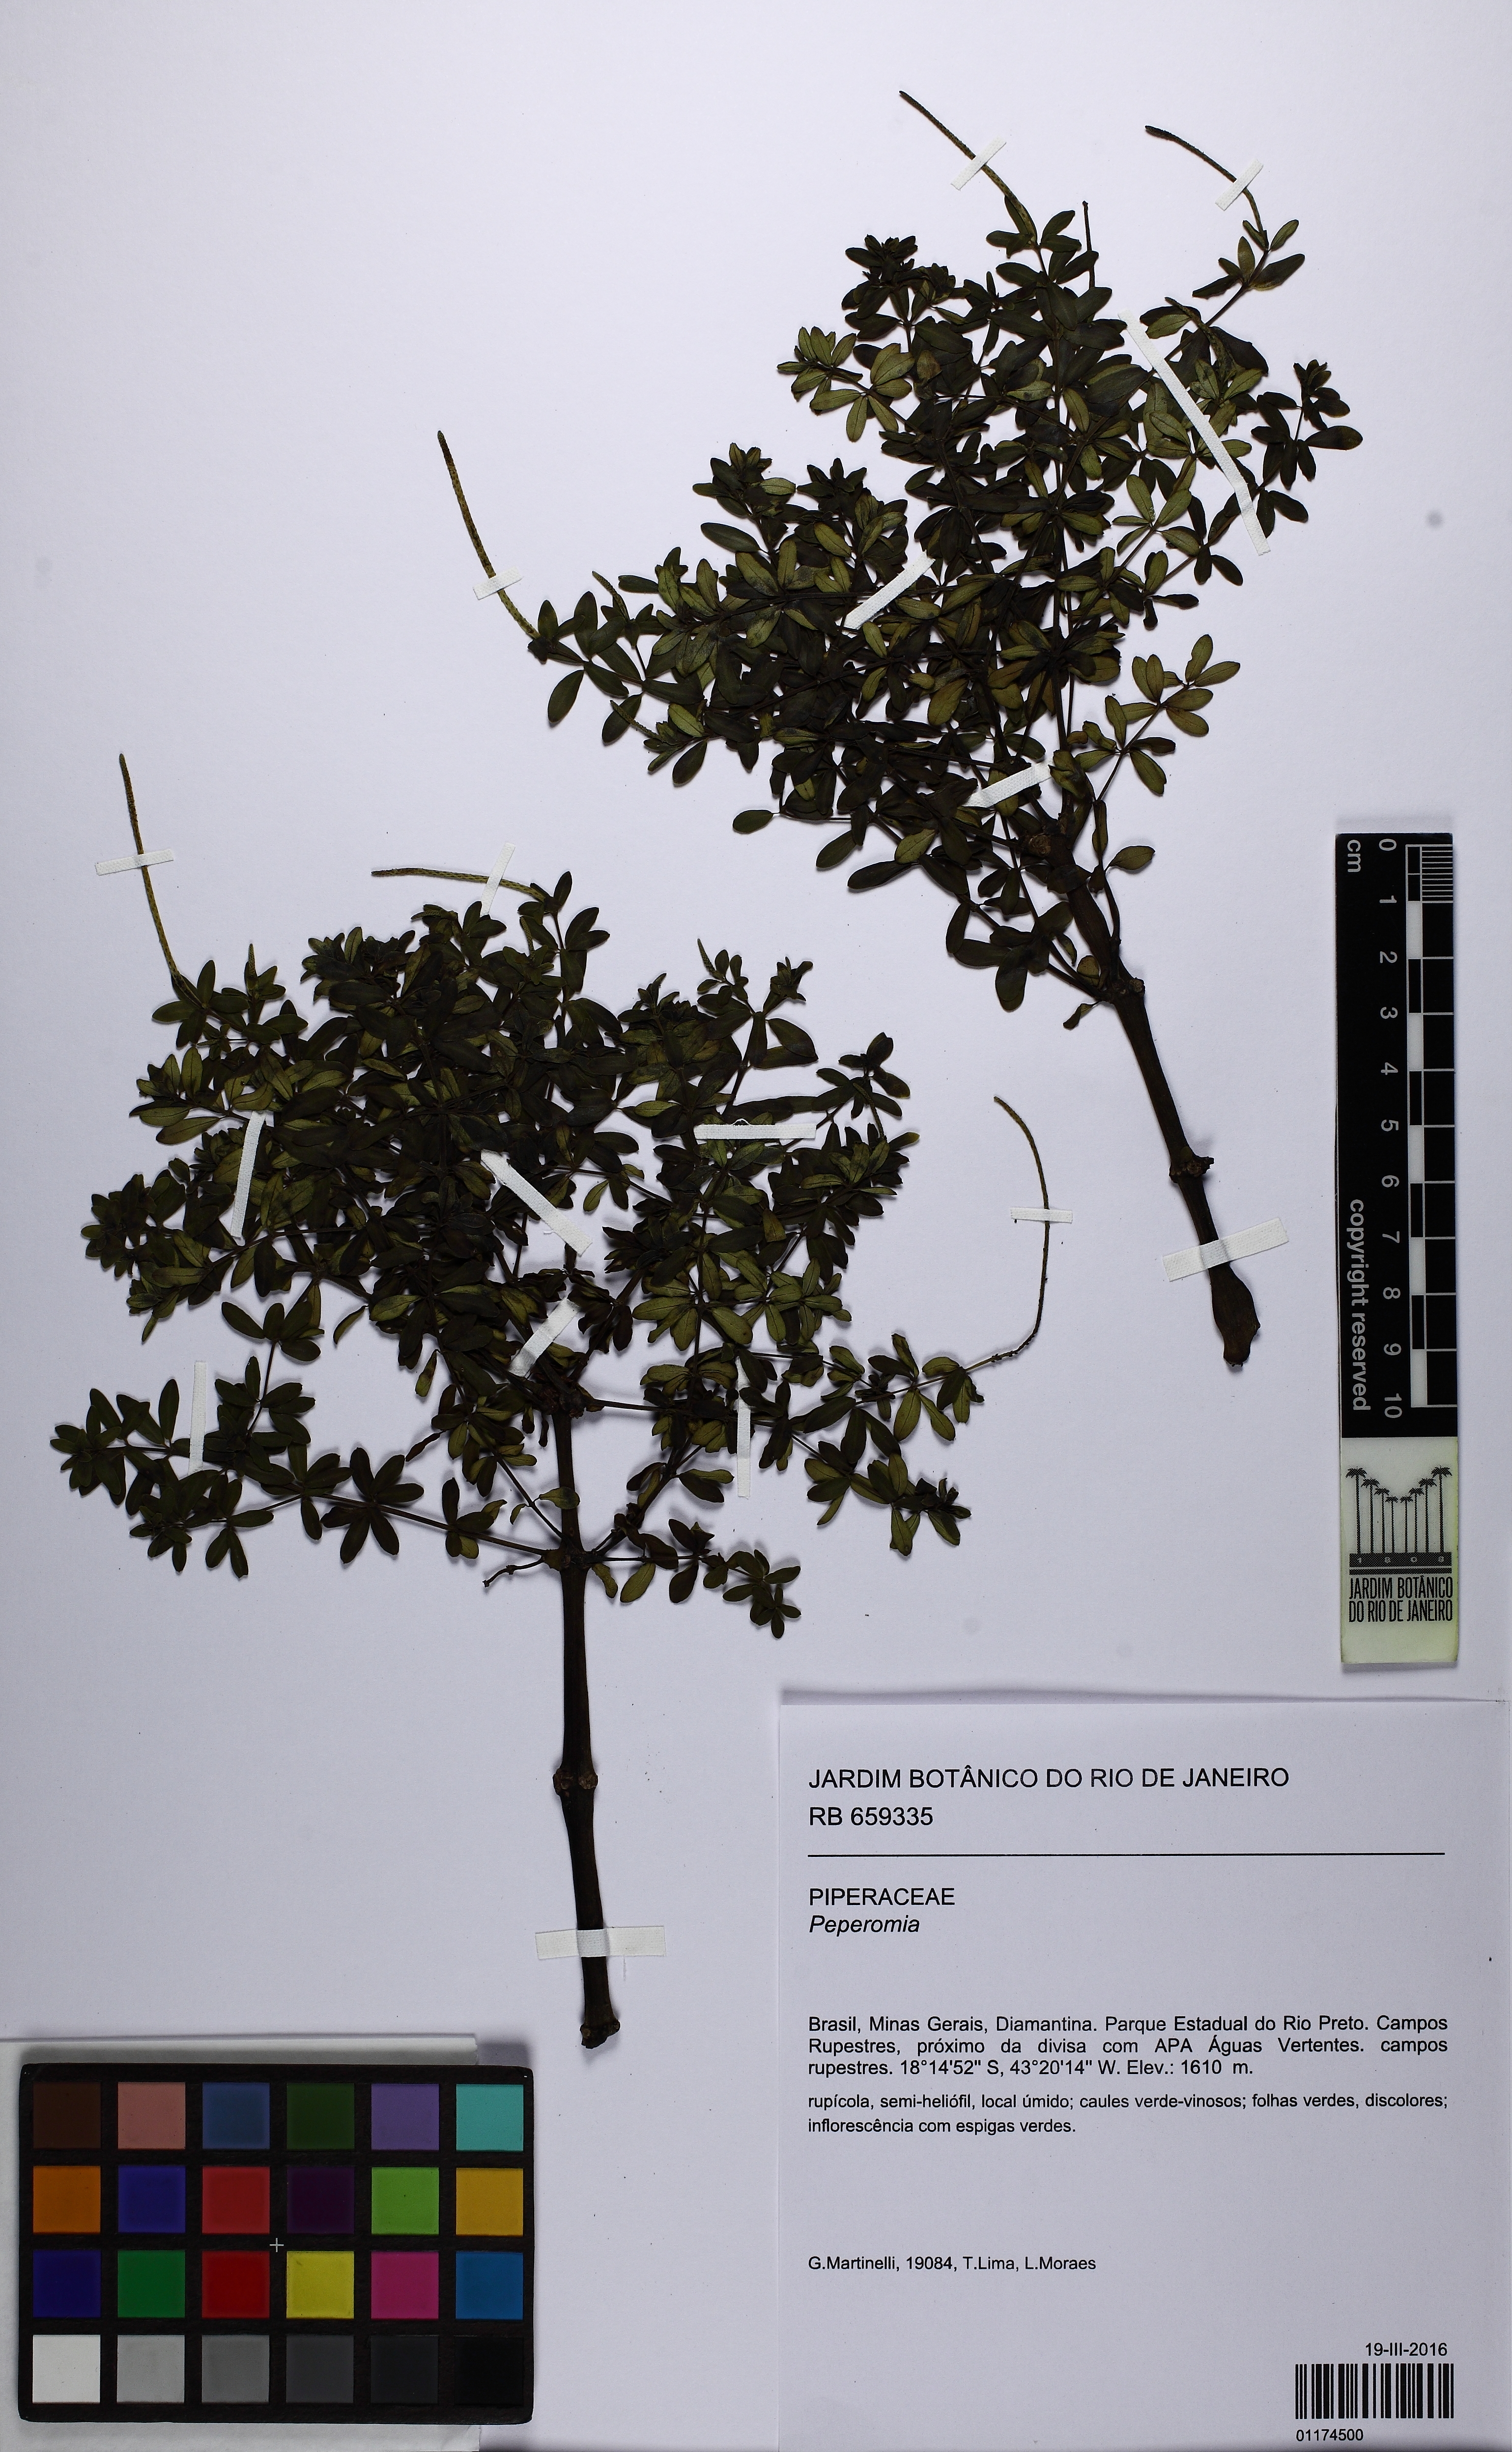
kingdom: Plantae
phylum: Tracheophyta
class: Magnoliopsida
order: Piperales
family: Piperaceae
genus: Peperomia
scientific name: Peperomia galioides
